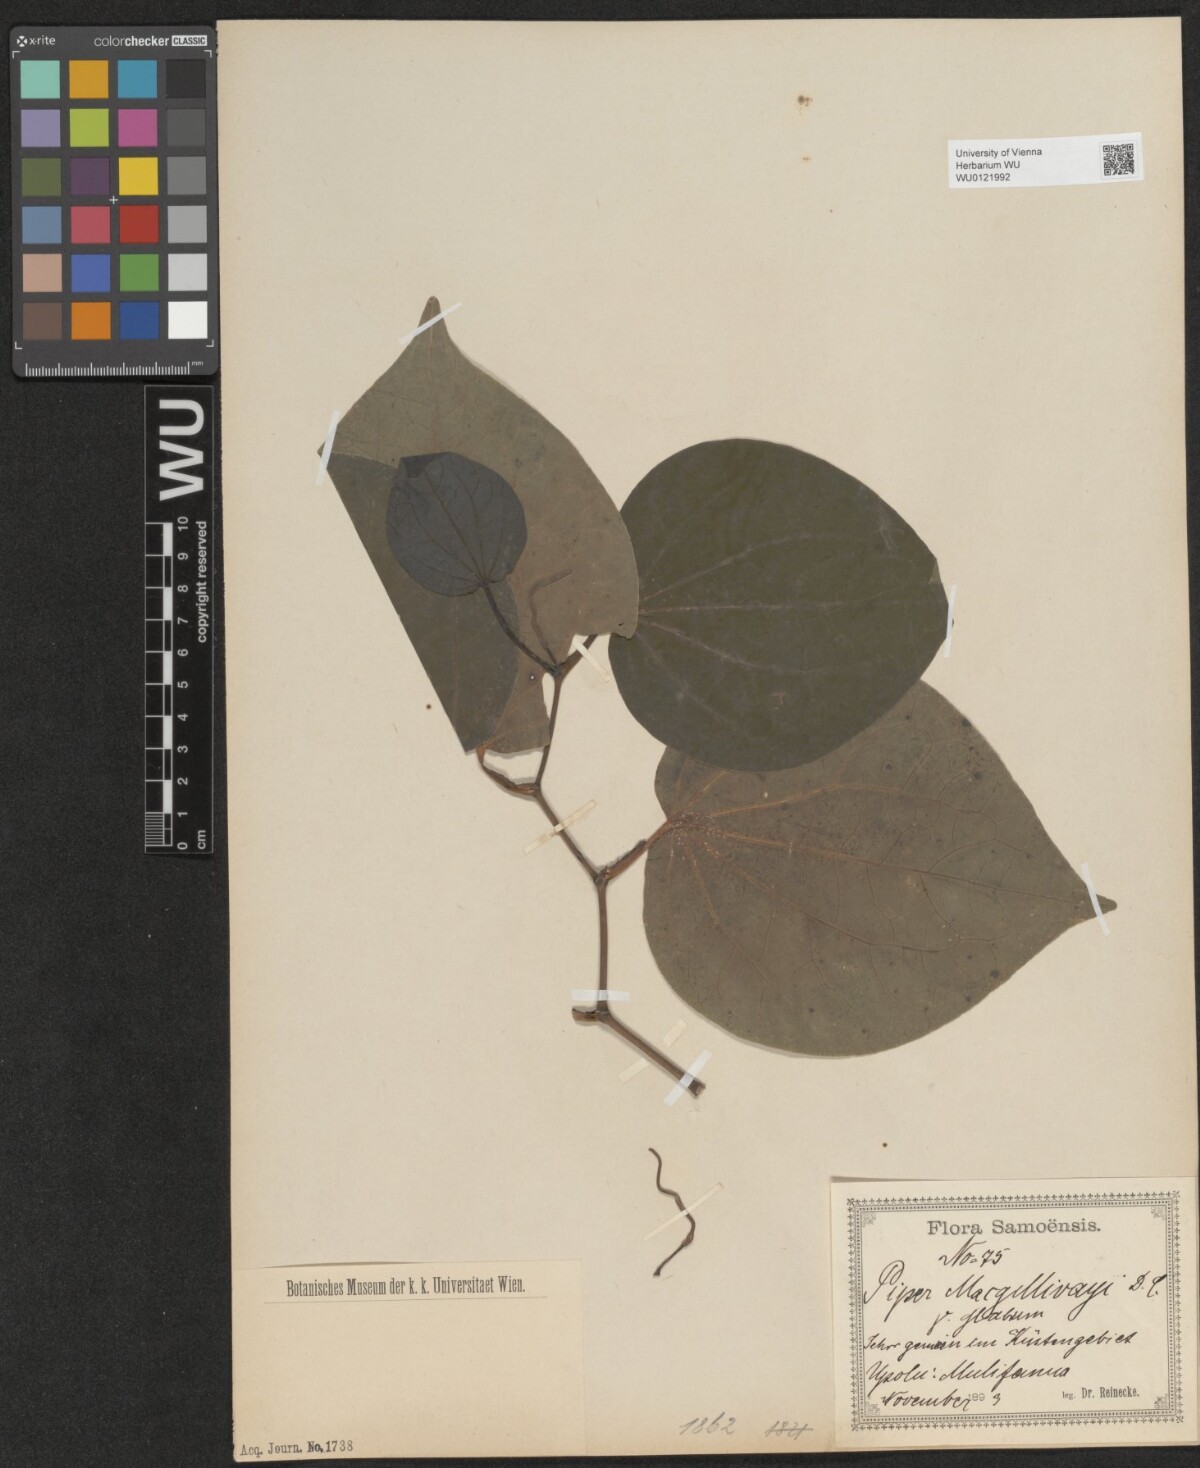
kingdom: Plantae
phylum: Tracheophyta
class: Magnoliopsida
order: Piperales
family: Piperaceae
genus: Macropiper
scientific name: Macropiper puberulum
